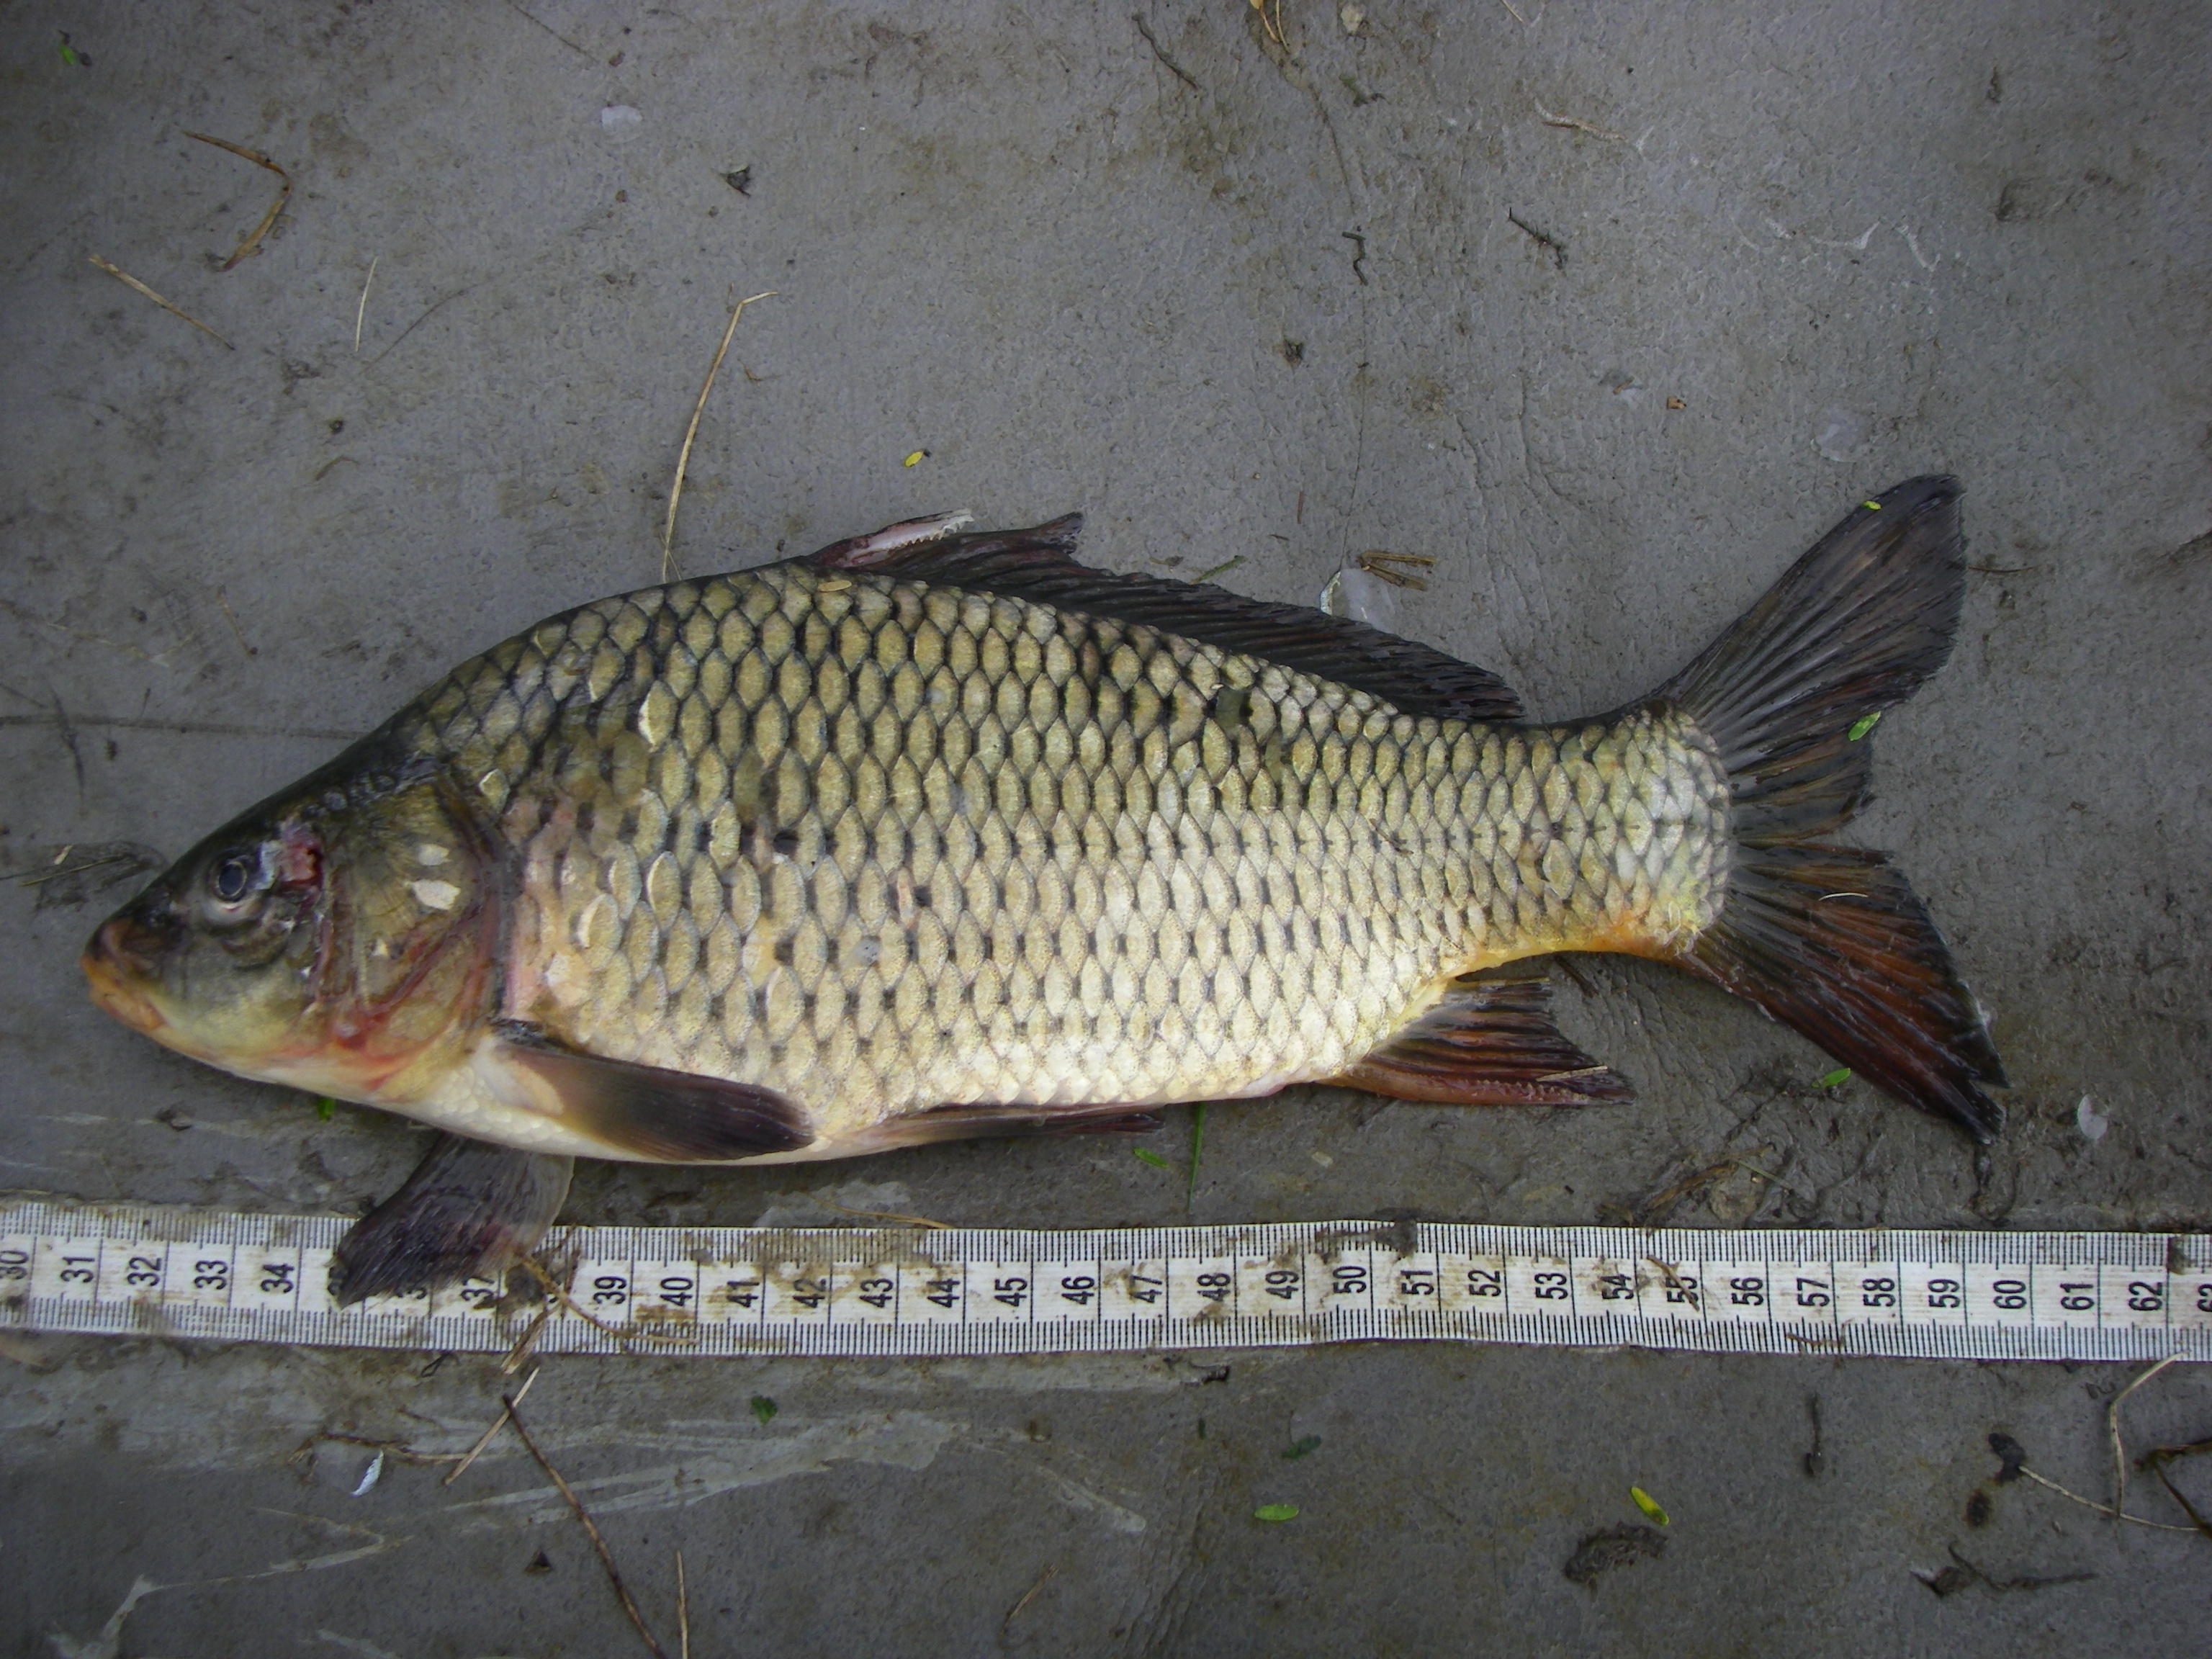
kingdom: Animalia
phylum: Chordata
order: Cypriniformes
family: Cyprinidae
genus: Cyprinus
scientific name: Cyprinus carpio
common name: Common carp
